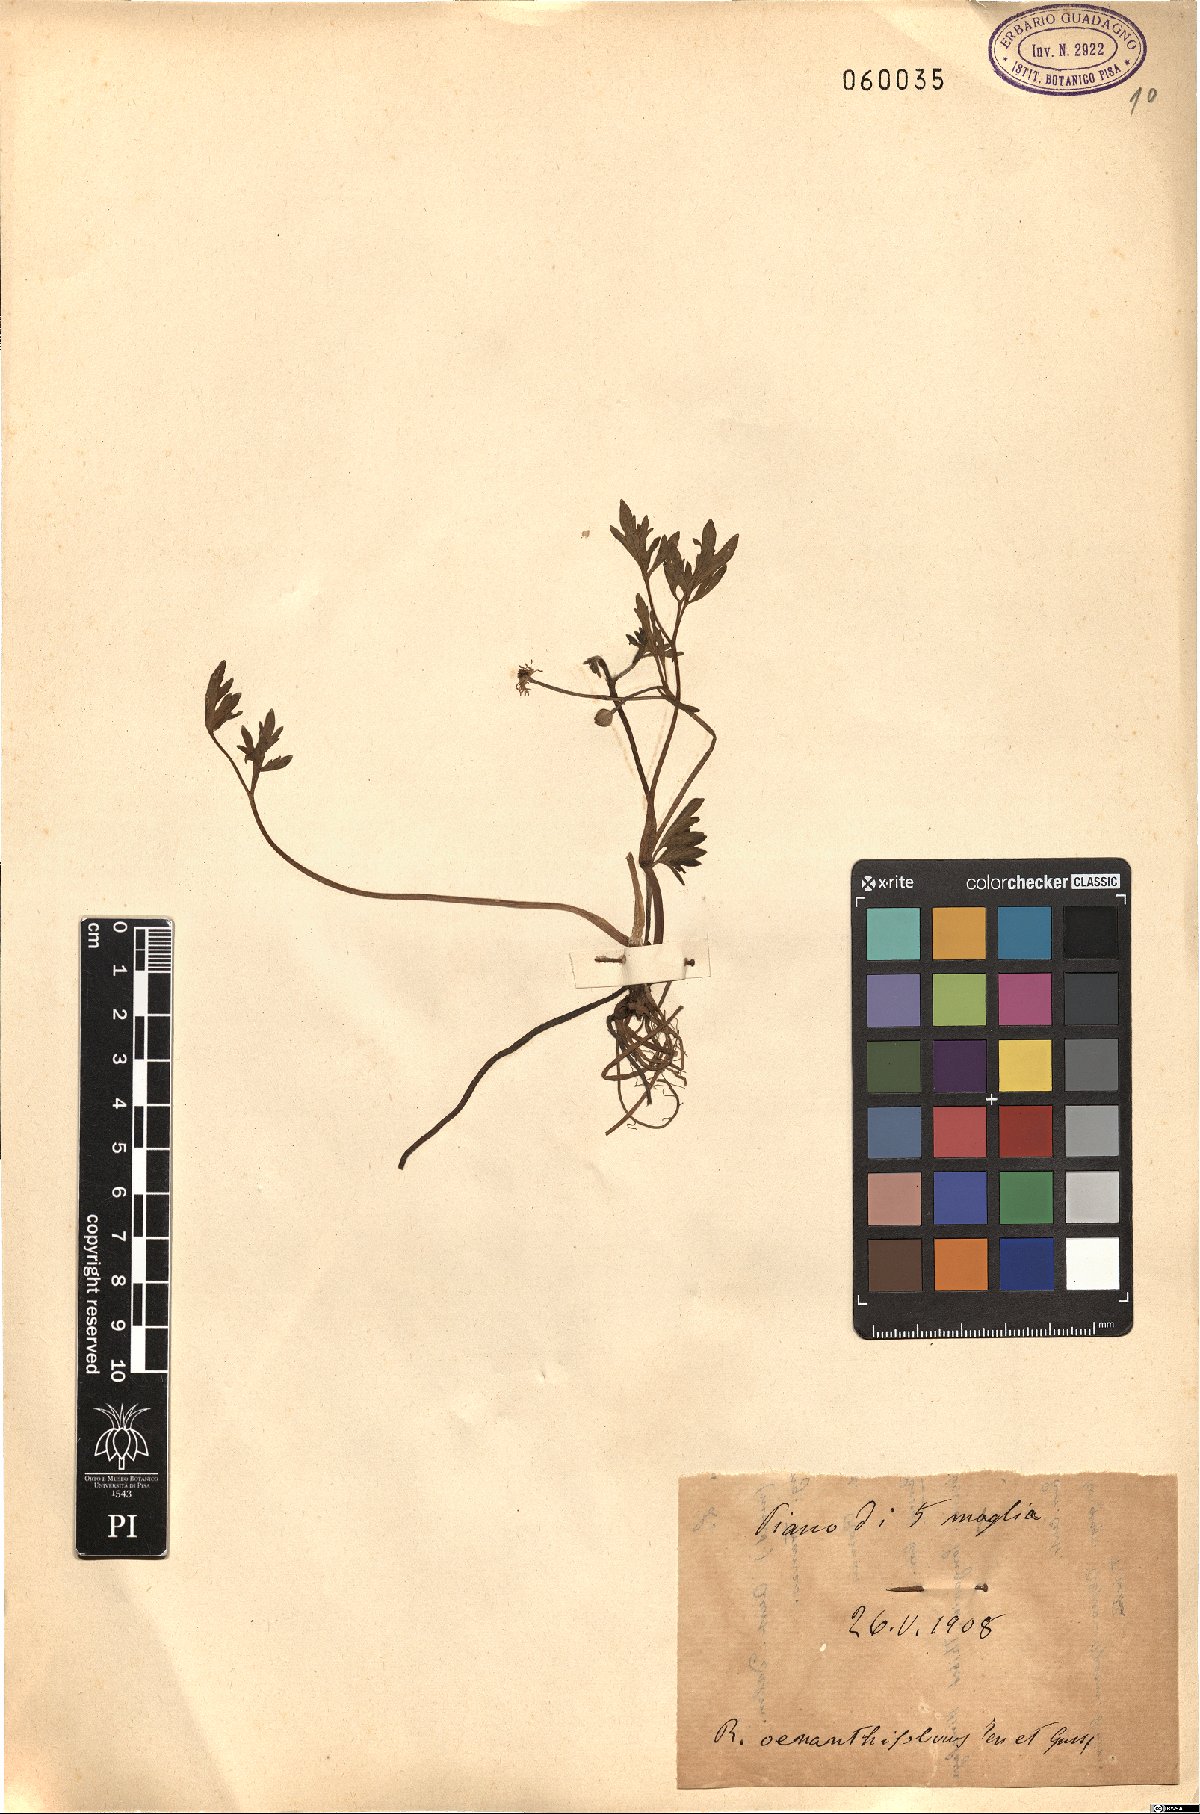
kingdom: Plantae
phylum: Tracheophyta
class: Magnoliopsida
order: Ranunculales
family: Ranunculaceae
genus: Ranunculus
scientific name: Ranunculus repens
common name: Creeping buttercup
